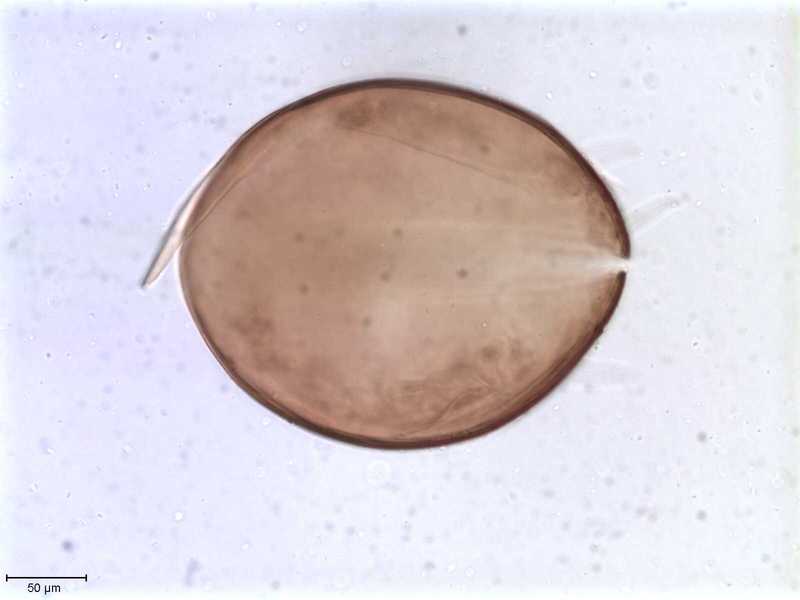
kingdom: Animalia
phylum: Arthropoda
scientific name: Arthropoda
